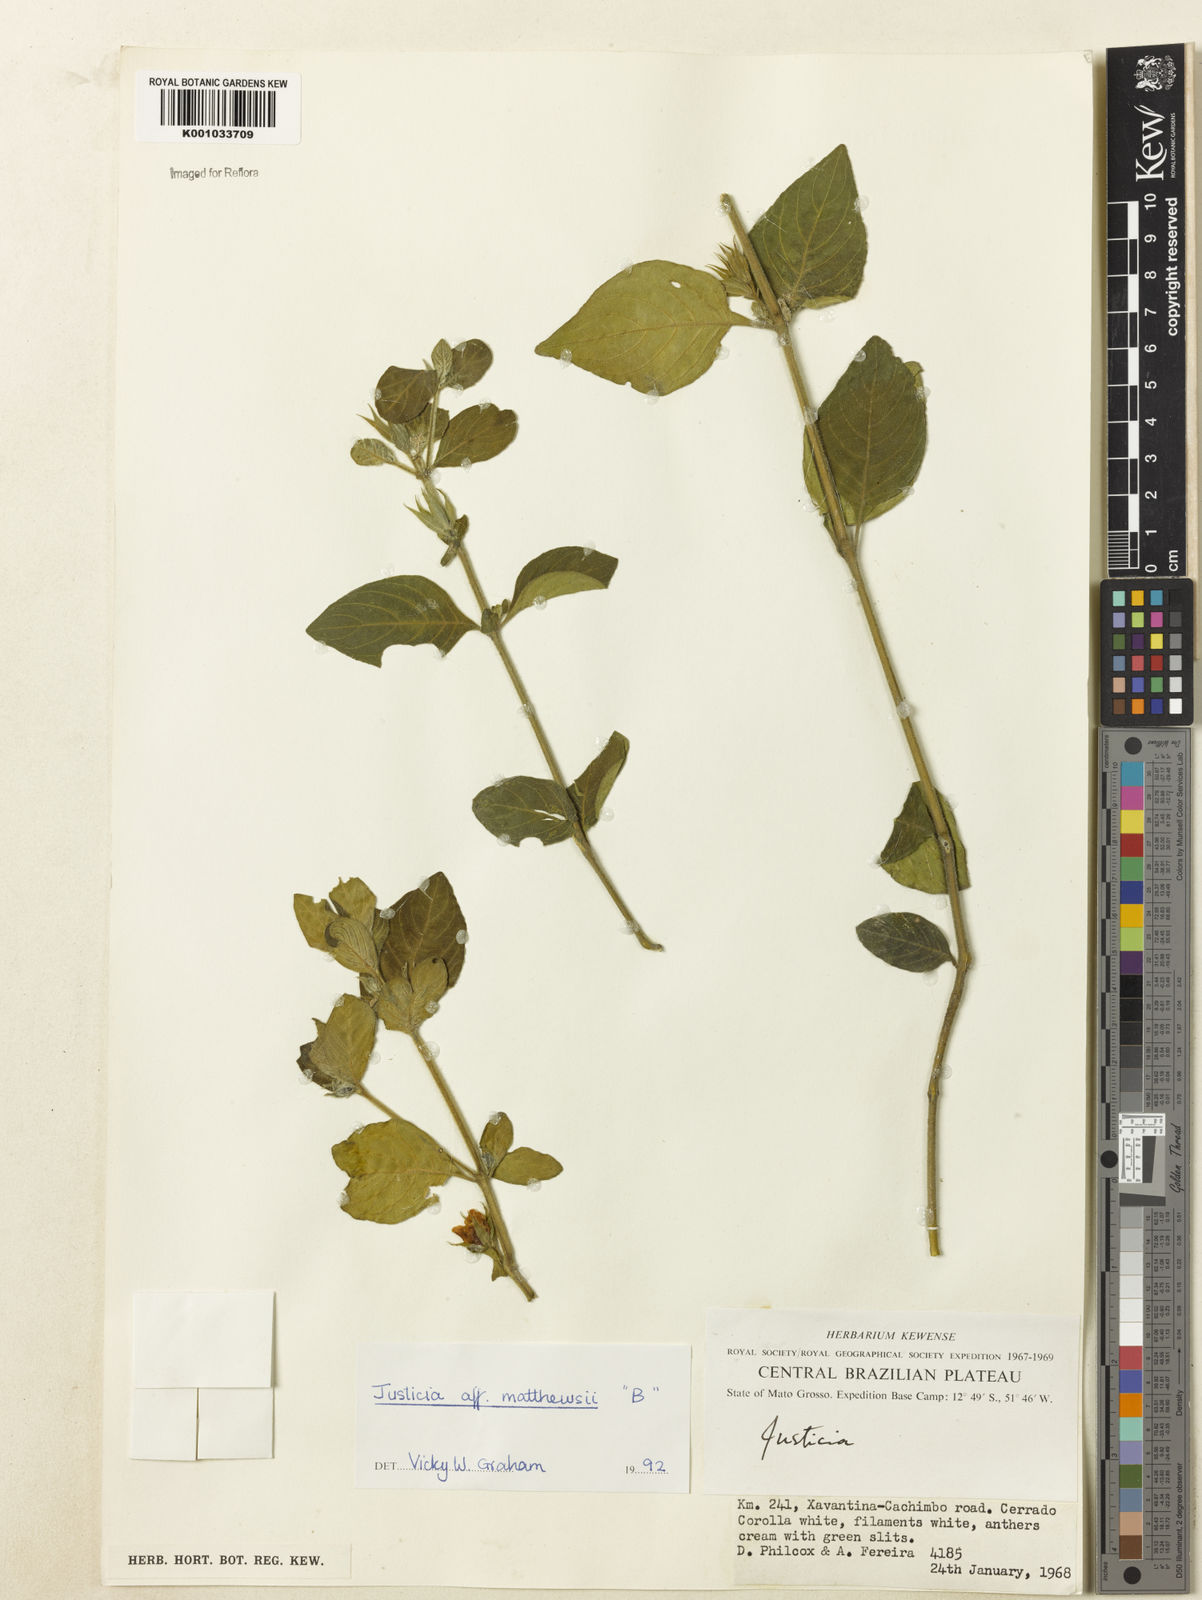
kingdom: Plantae
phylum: Tracheophyta
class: Magnoliopsida
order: Lamiales
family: Acanthaceae
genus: Justicia
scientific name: Justicia phyllocalyx
